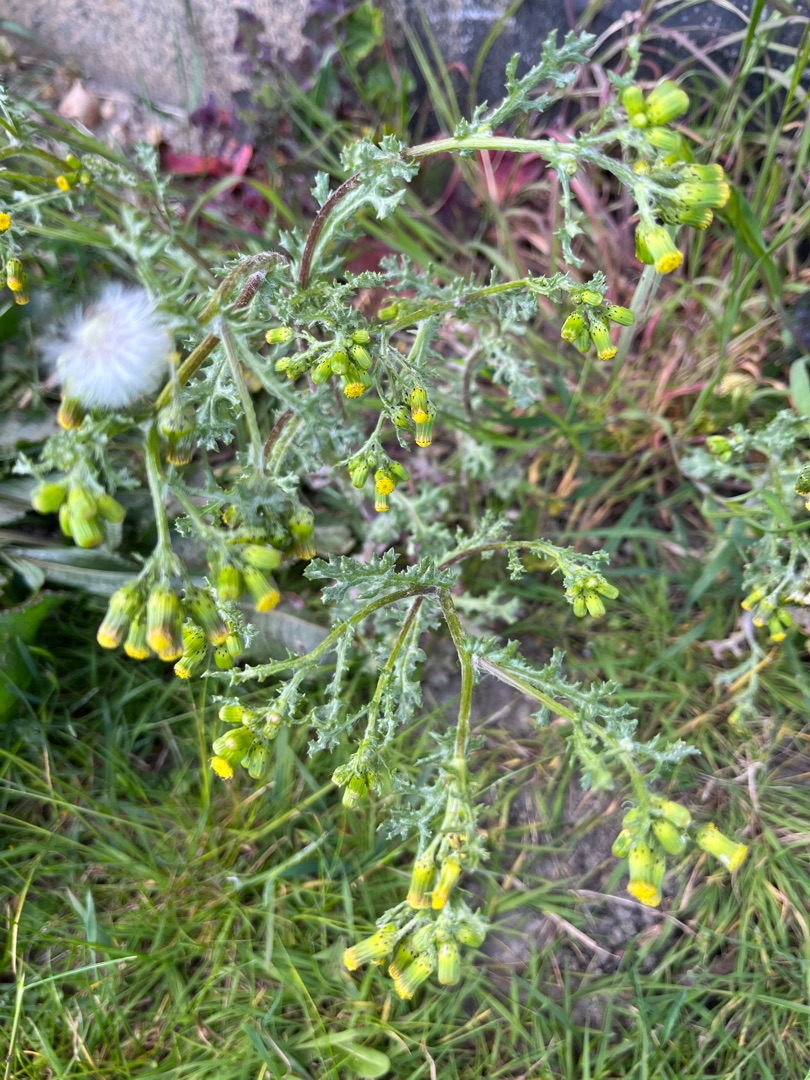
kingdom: Plantae
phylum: Tracheophyta
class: Magnoliopsida
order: Asterales
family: Asteraceae
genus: Senecio
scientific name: Senecio vulgaris
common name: Almindelig brandbæger
